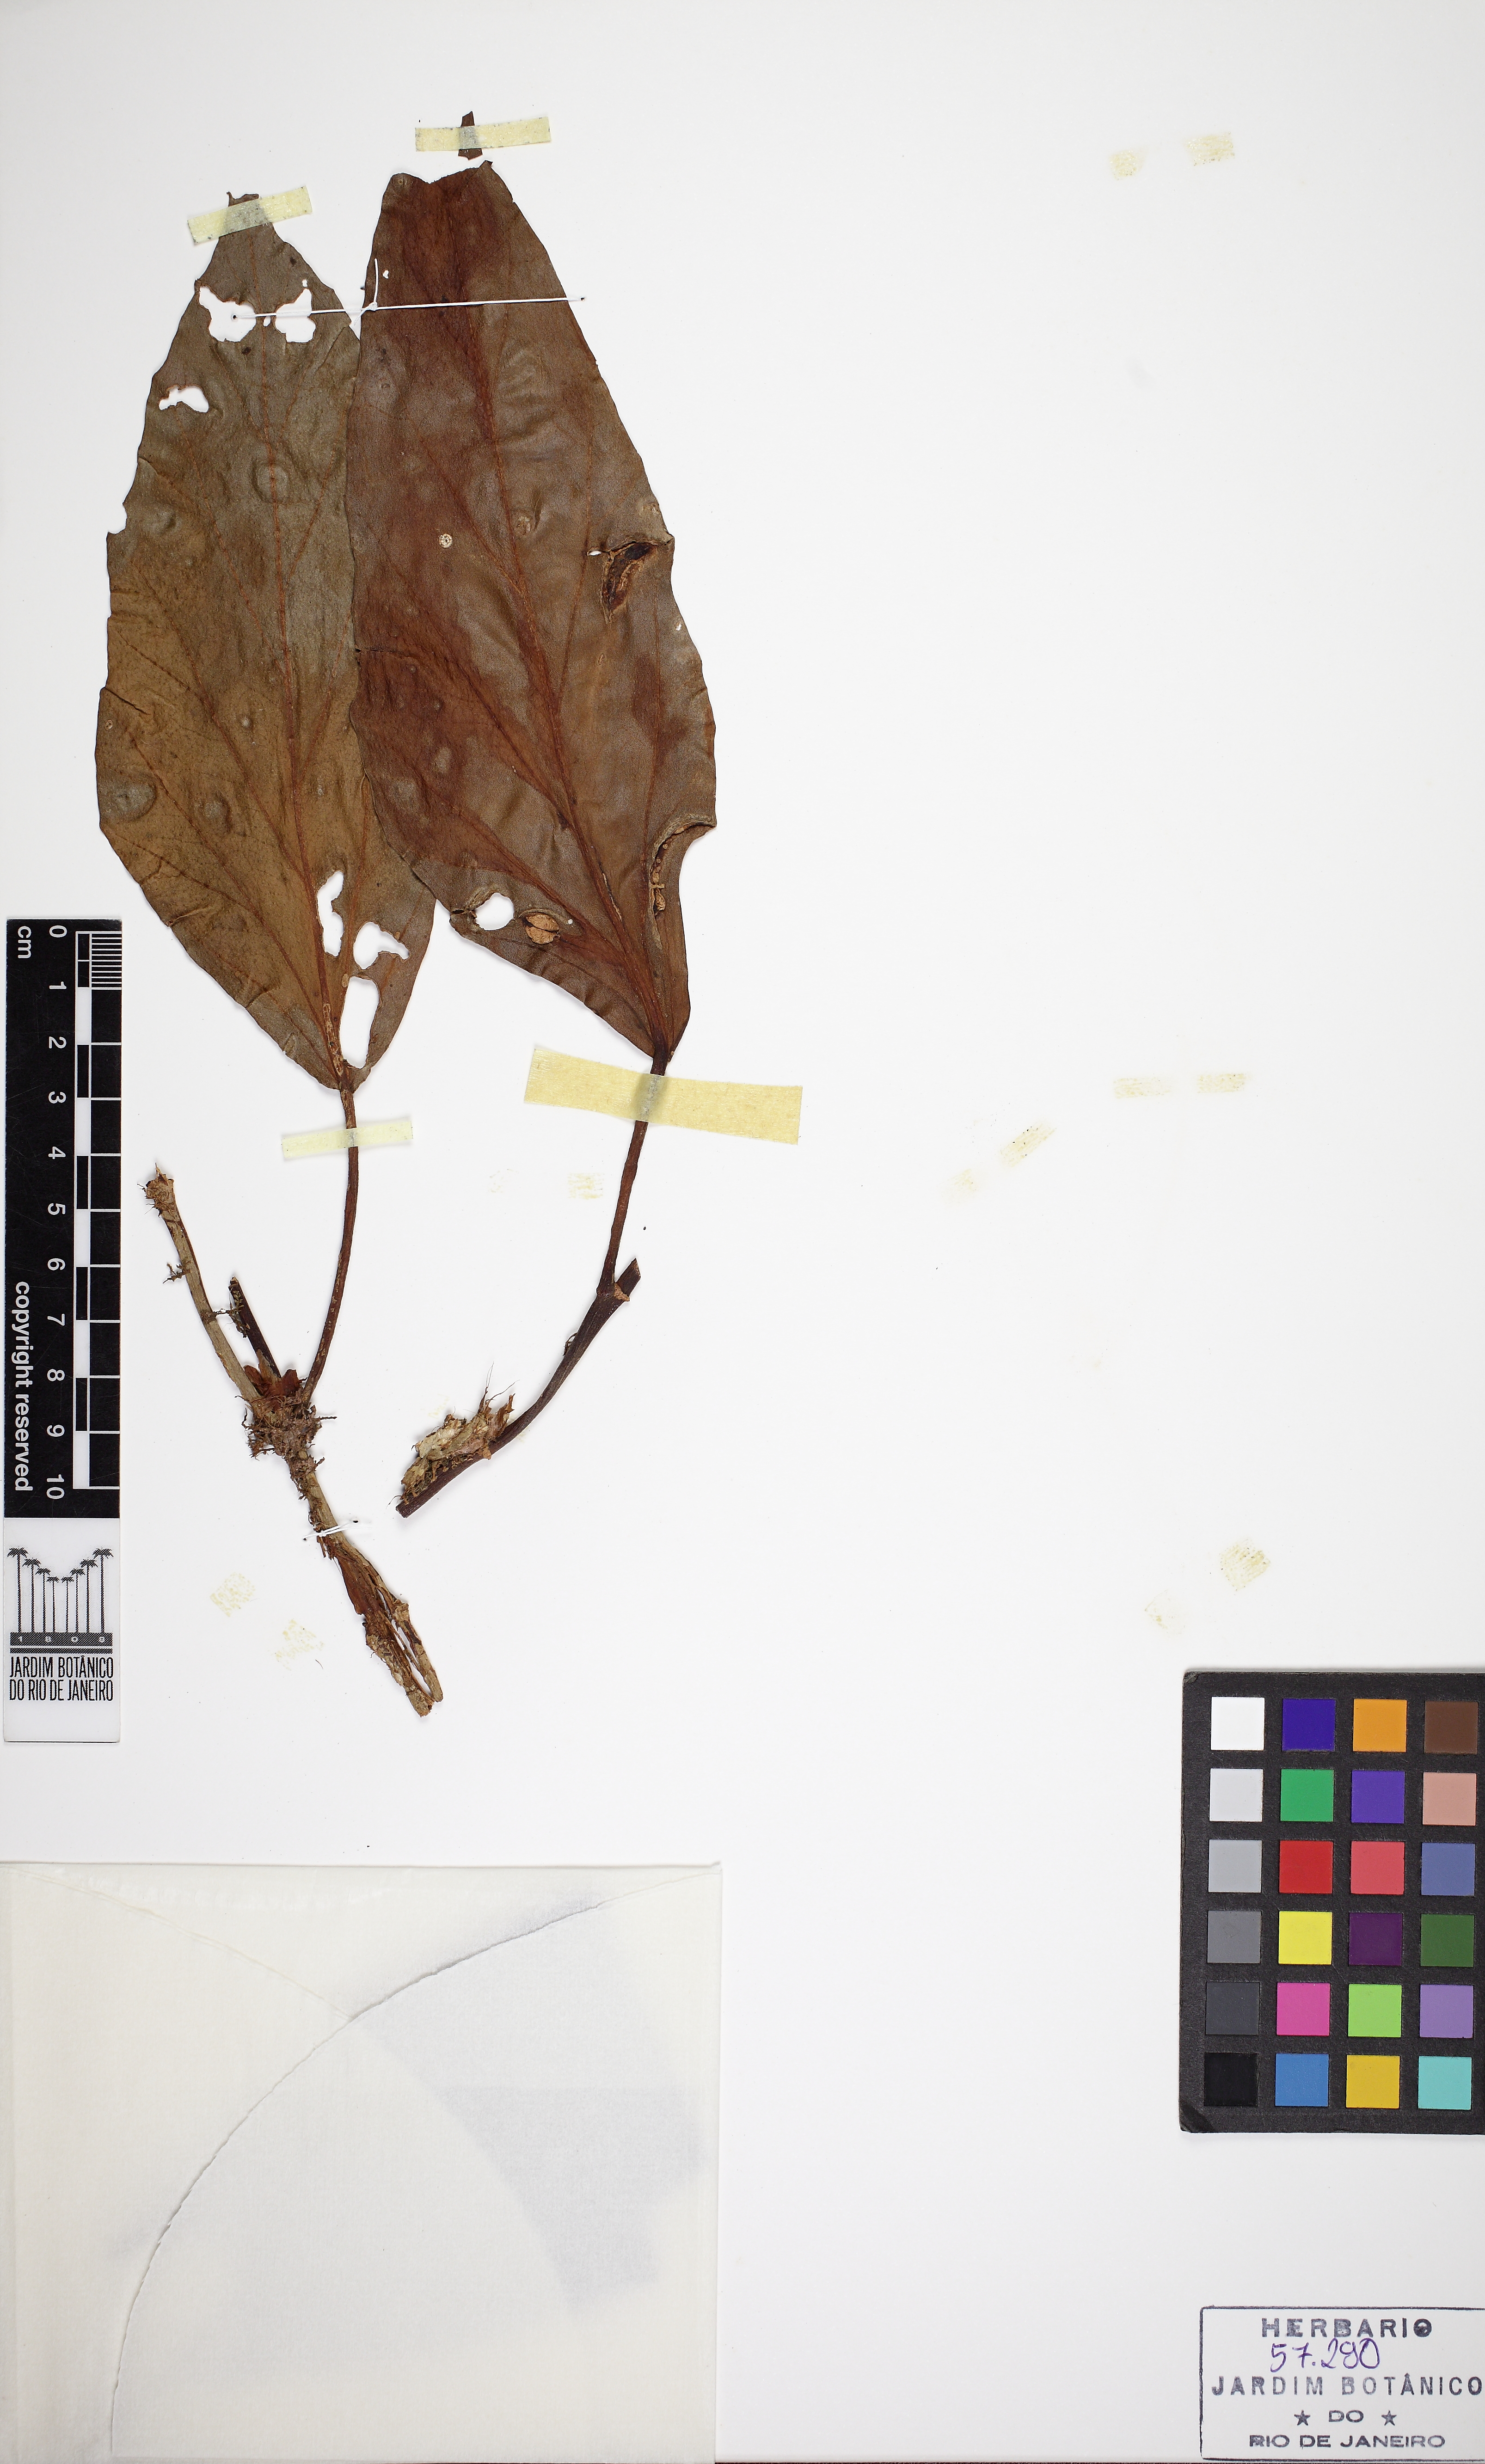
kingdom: Plantae
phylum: Tracheophyta
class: Magnoliopsida
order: Cucurbitales
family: Begoniaceae
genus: Begonia
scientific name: Begonia radicans
